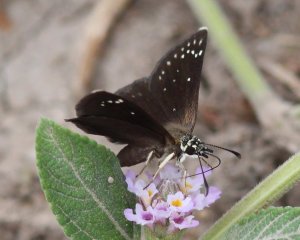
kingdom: Animalia
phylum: Arthropoda
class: Insecta
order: Lepidoptera
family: Hesperiidae
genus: Pholisora
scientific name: Pholisora catullus
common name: Common Sootywing
